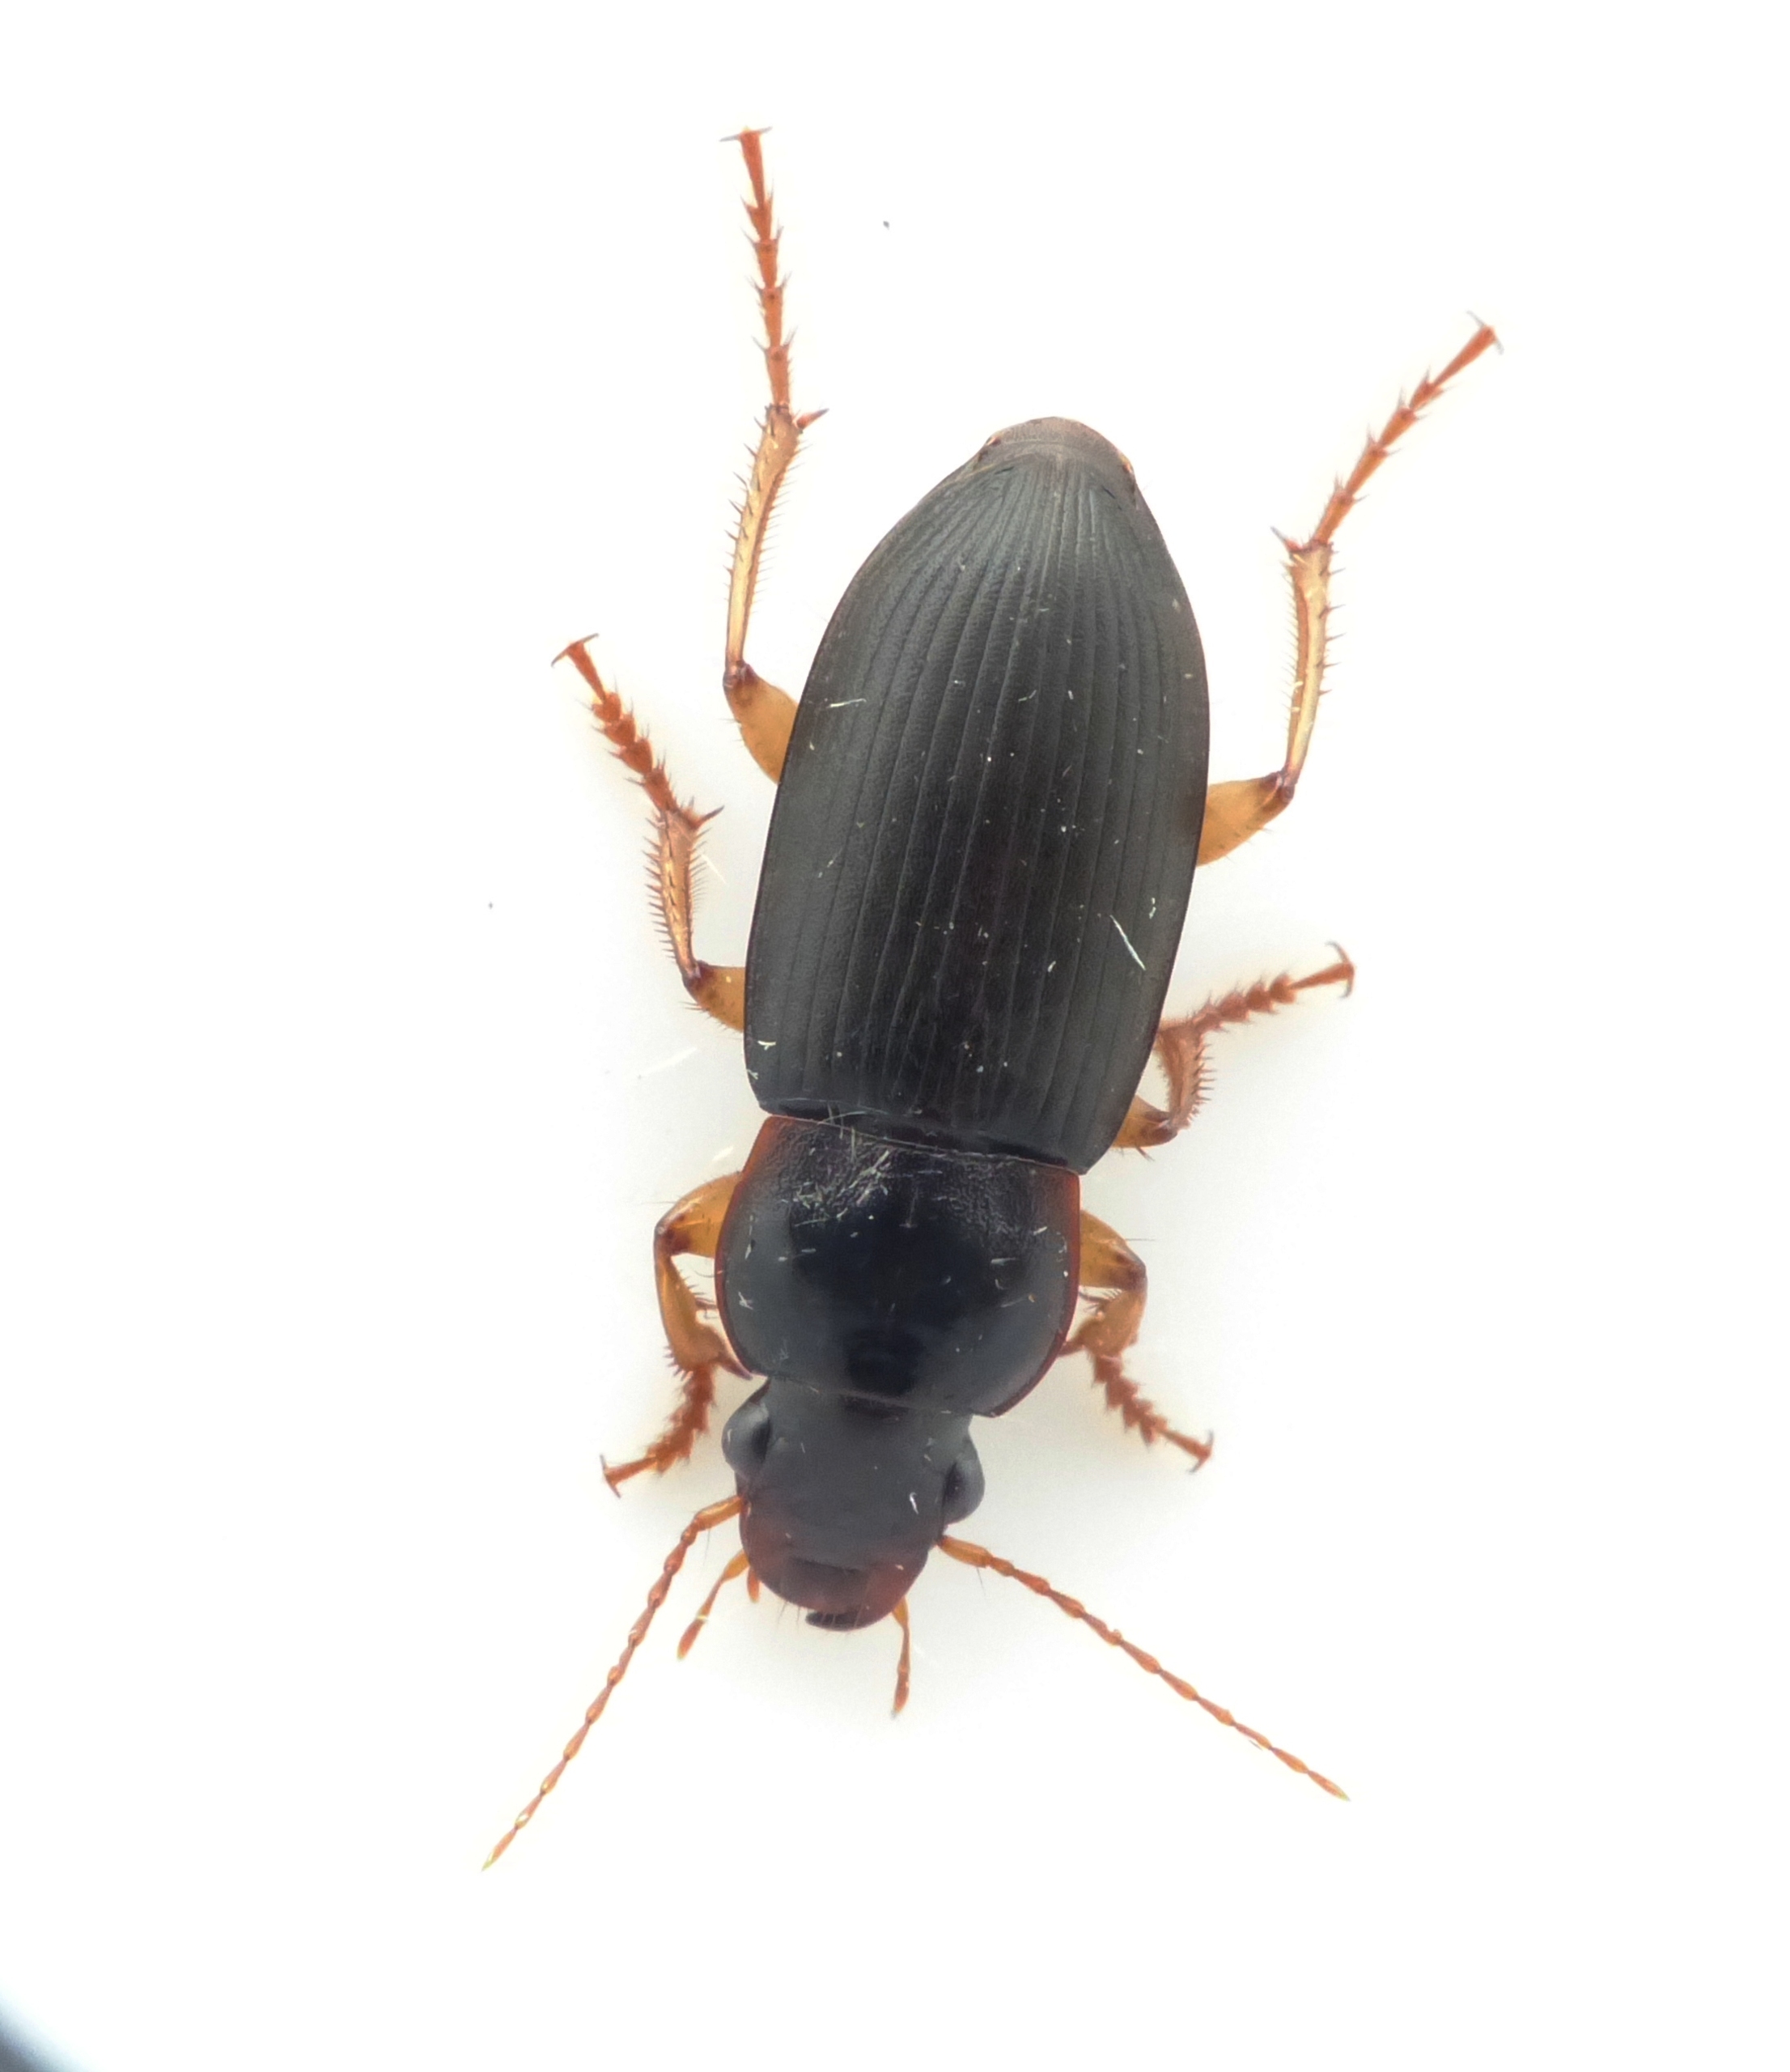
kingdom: Animalia
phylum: Arthropoda
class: Insecta
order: Coleoptera
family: Carabidae
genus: Harpalus
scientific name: Harpalus griseus
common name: Grålig markløber
